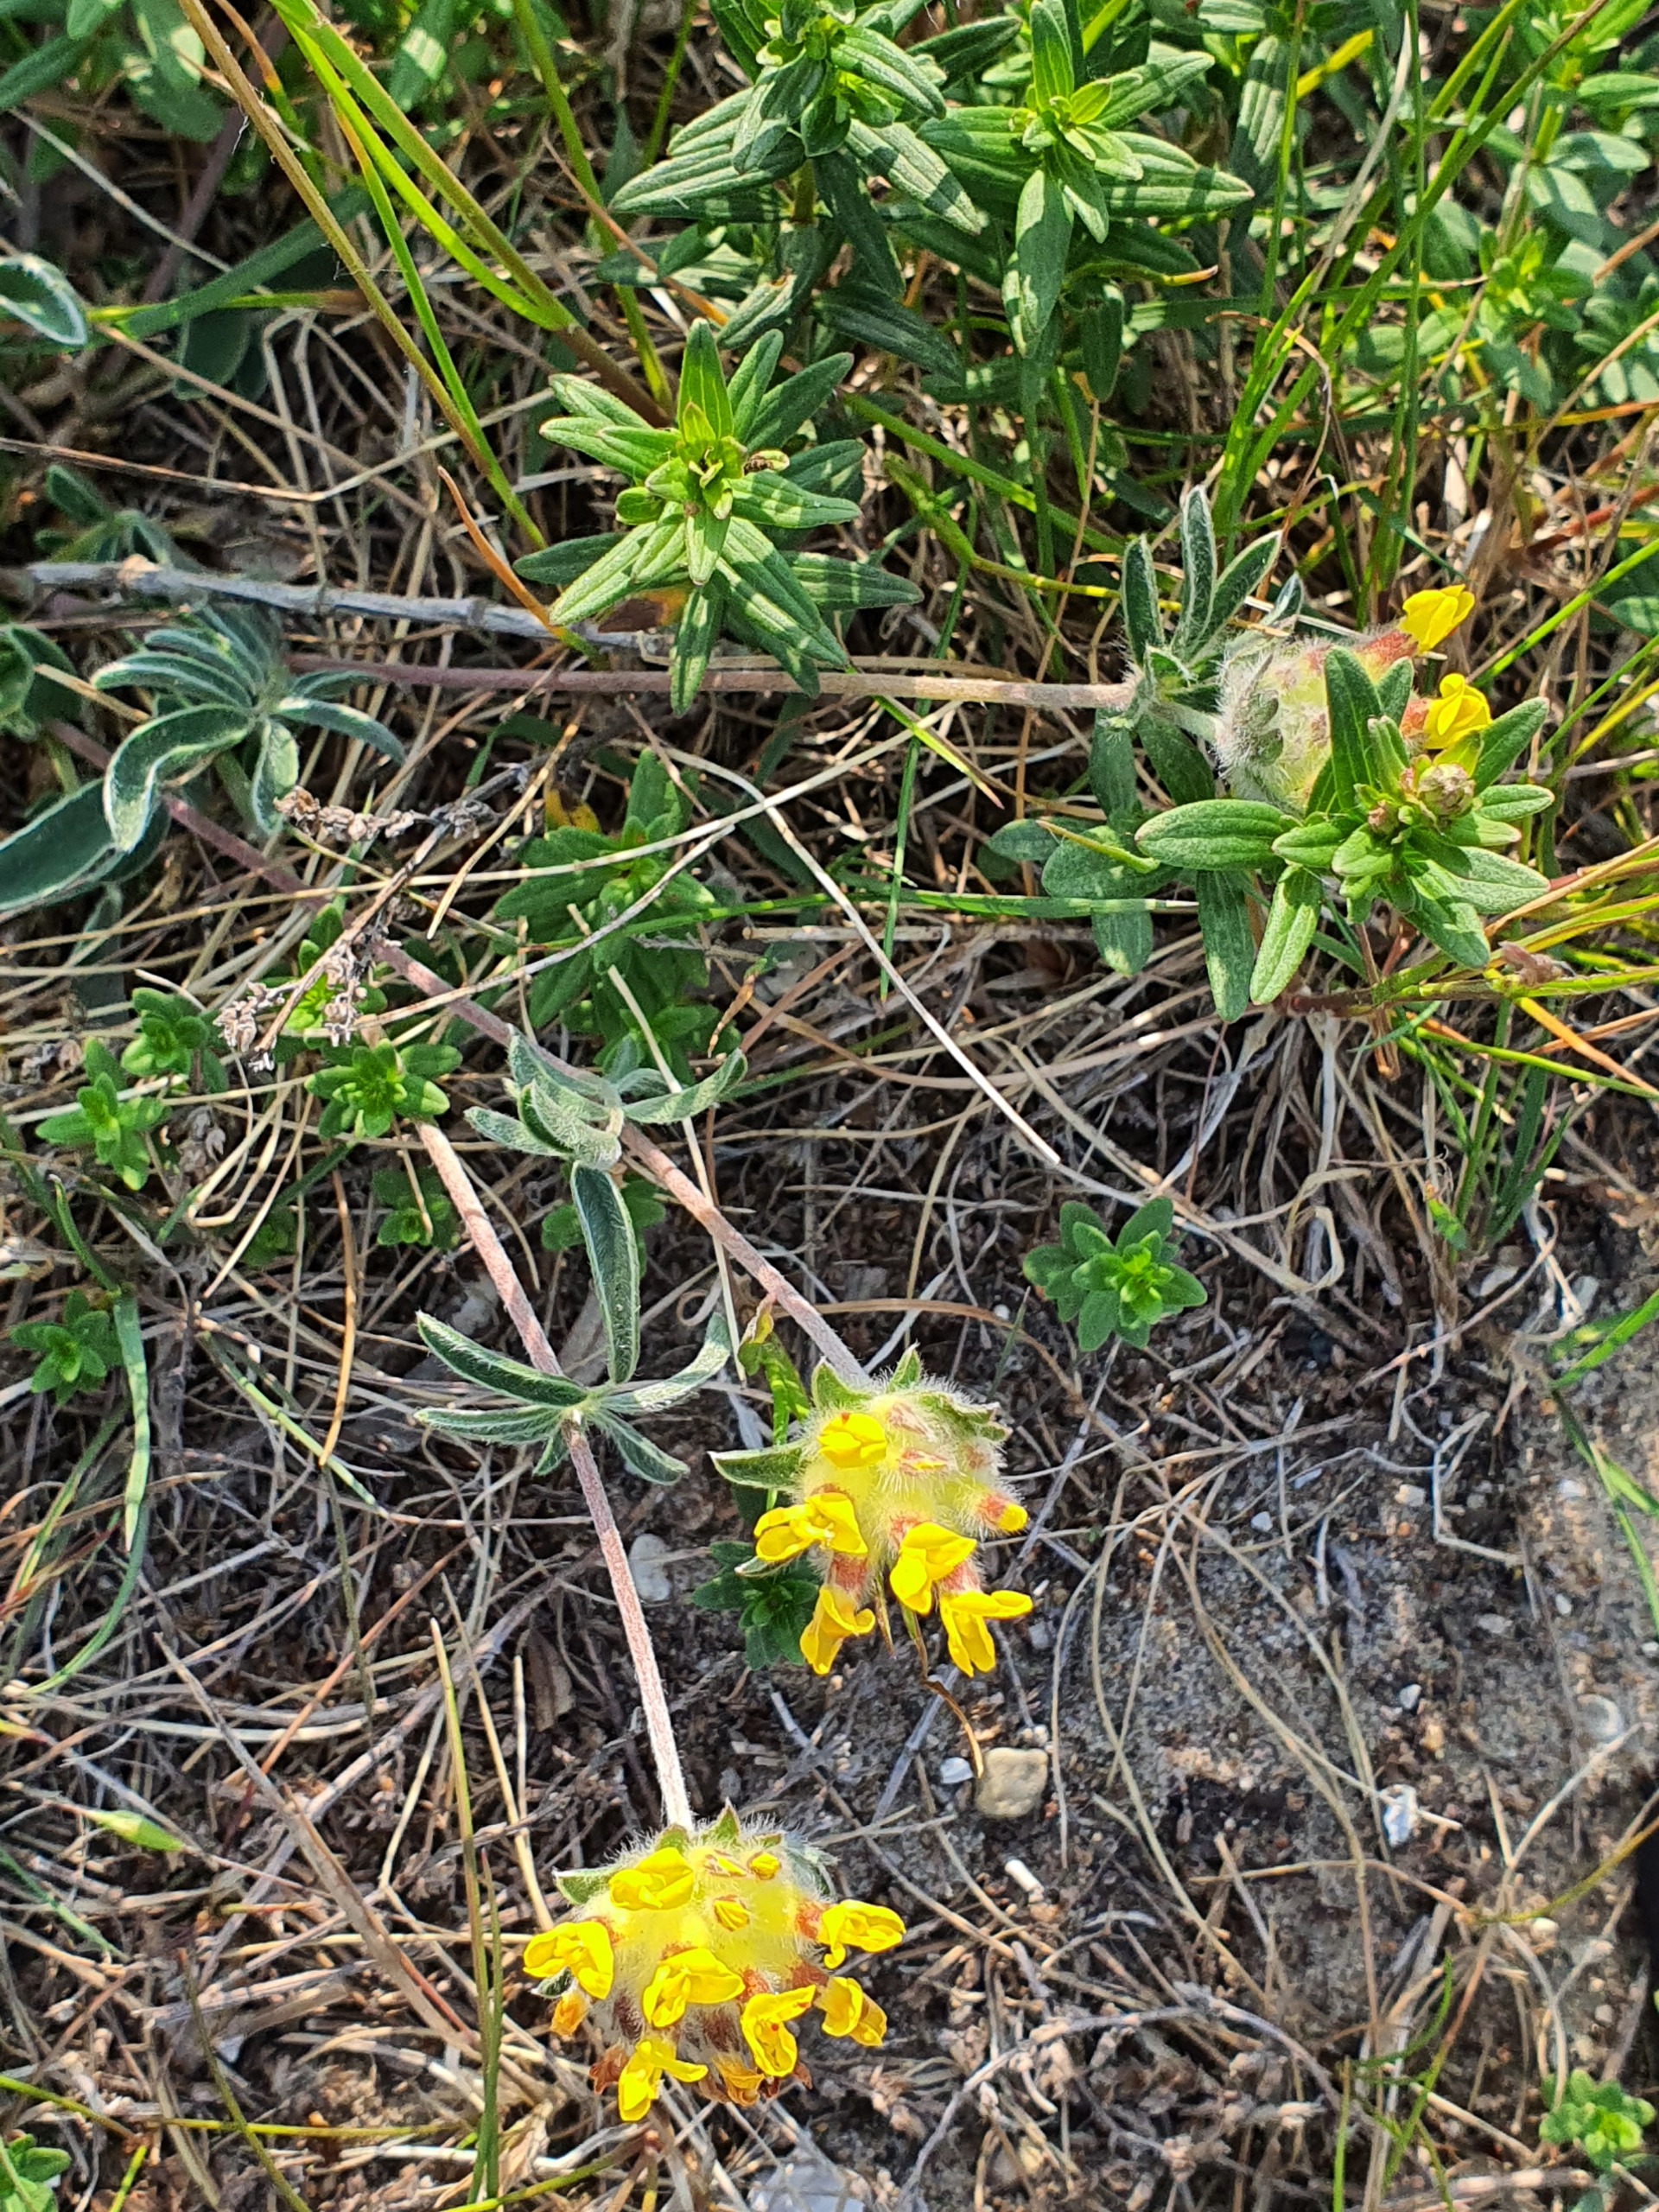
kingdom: Plantae
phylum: Tracheophyta
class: Magnoliopsida
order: Fabales
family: Fabaceae
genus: Anthyllis
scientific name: Anthyllis vulneraria
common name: Rundbælg
